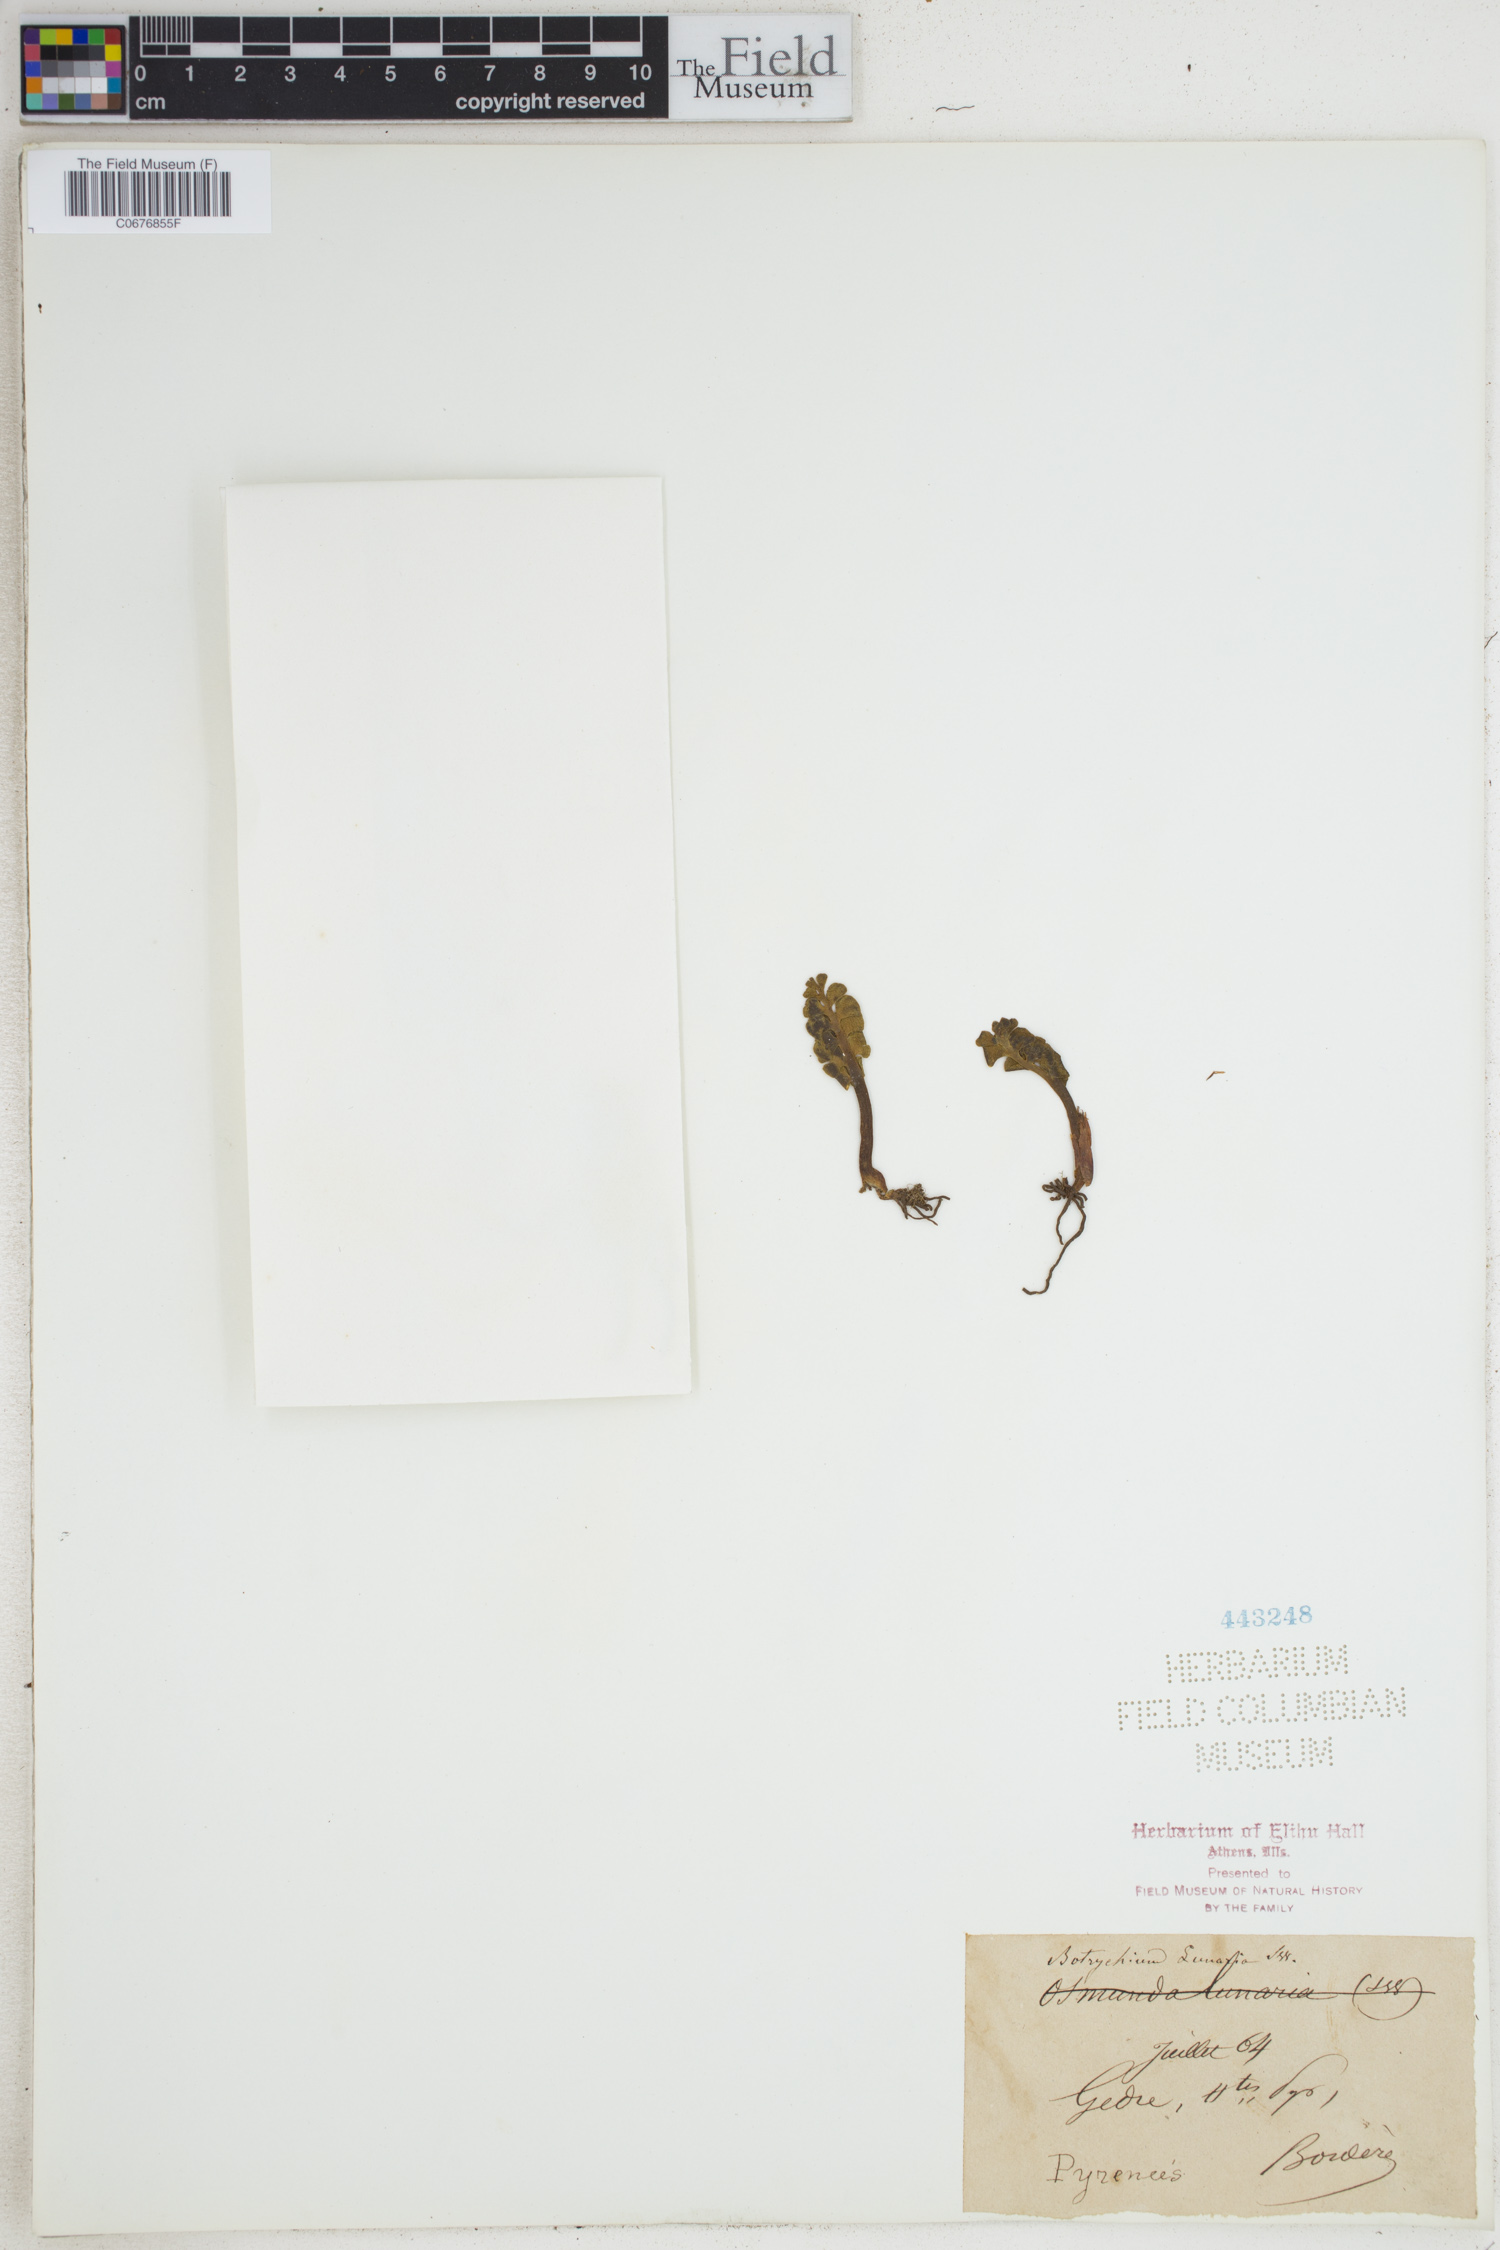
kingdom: Plantae
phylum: Tracheophyta
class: Polypodiopsida
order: Ophioglossales
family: Ophioglossaceae
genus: Botrychium
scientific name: Botrychium lunaria
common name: Moonwort
